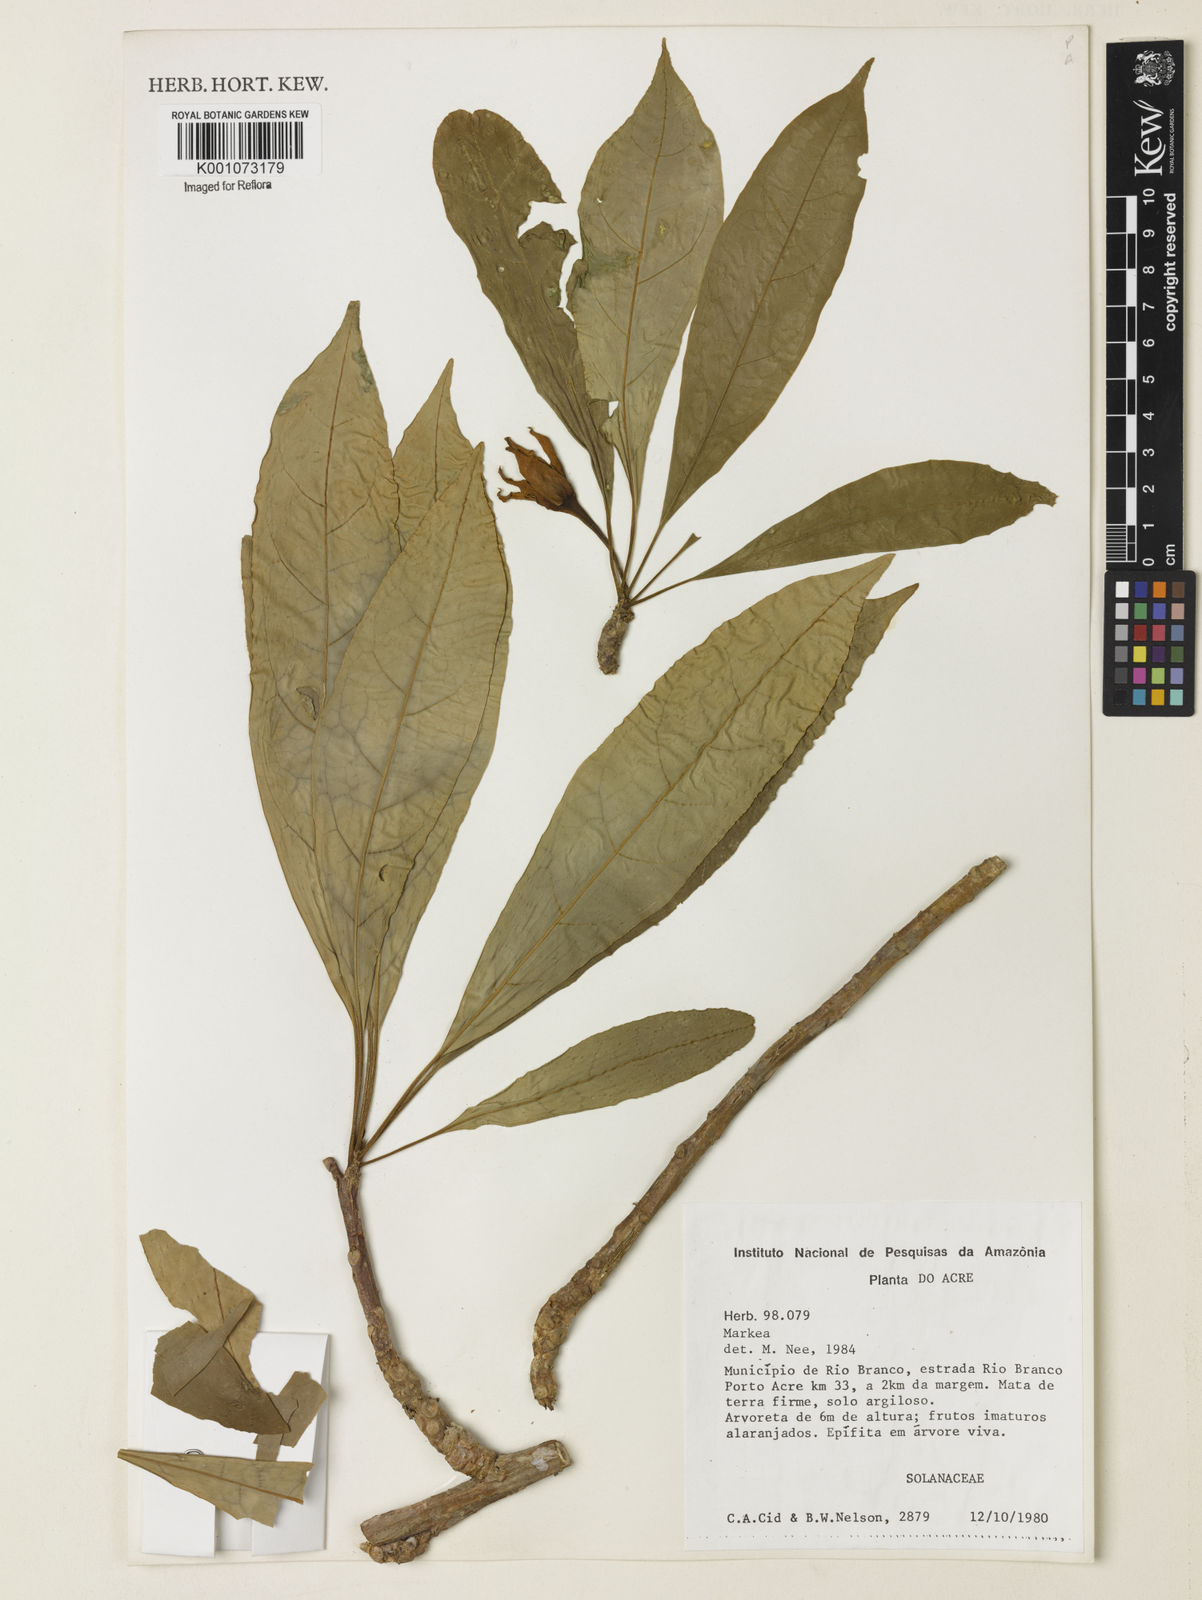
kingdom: Plantae
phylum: Tracheophyta
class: Magnoliopsida
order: Solanales
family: Solanaceae
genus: Markea
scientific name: Markea
